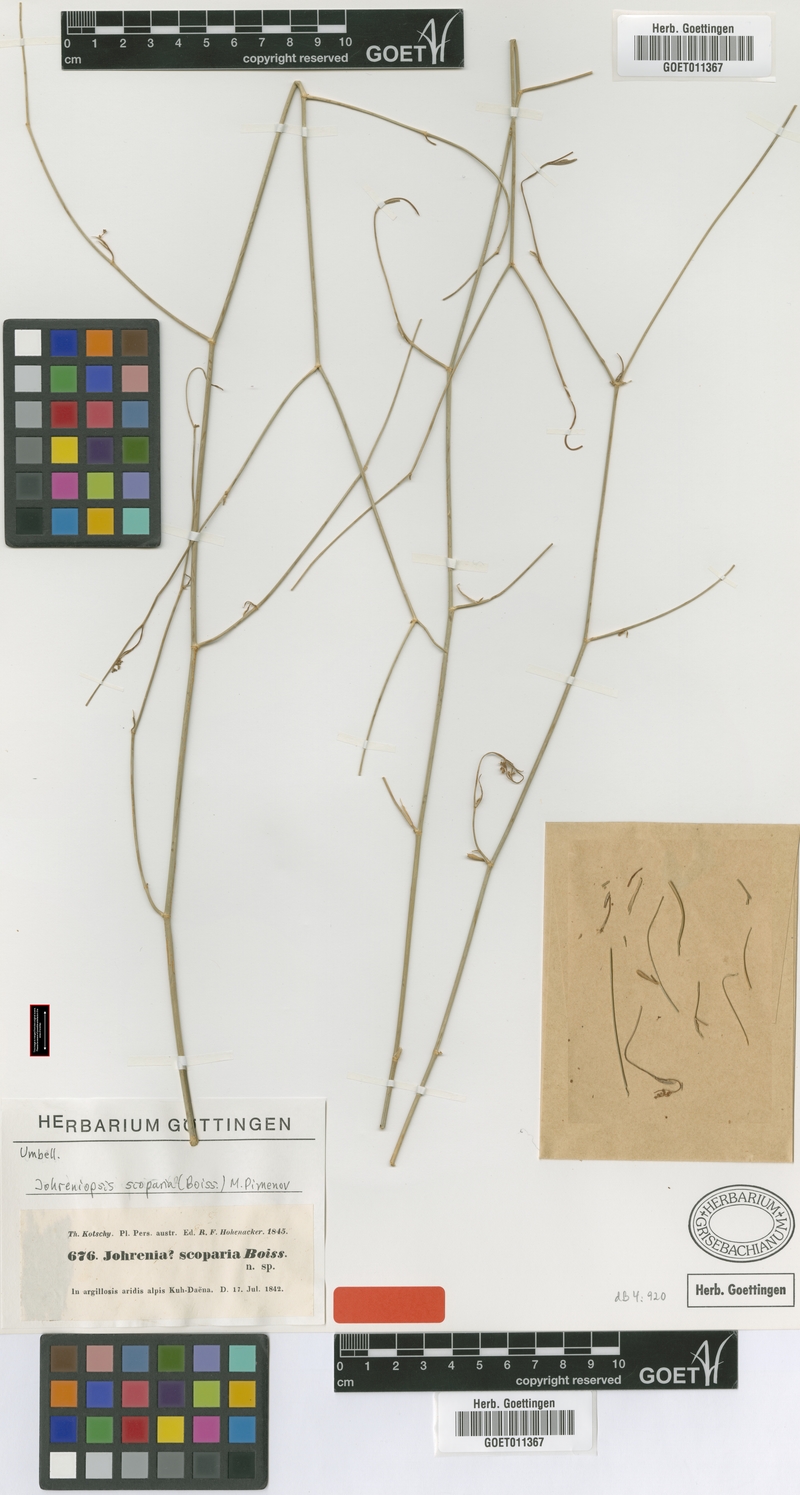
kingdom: Plantae
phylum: Tracheophyta
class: Magnoliopsida
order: Apiales
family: Apiaceae
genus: Dichoropetalum
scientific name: Dichoropetalum scoparium
